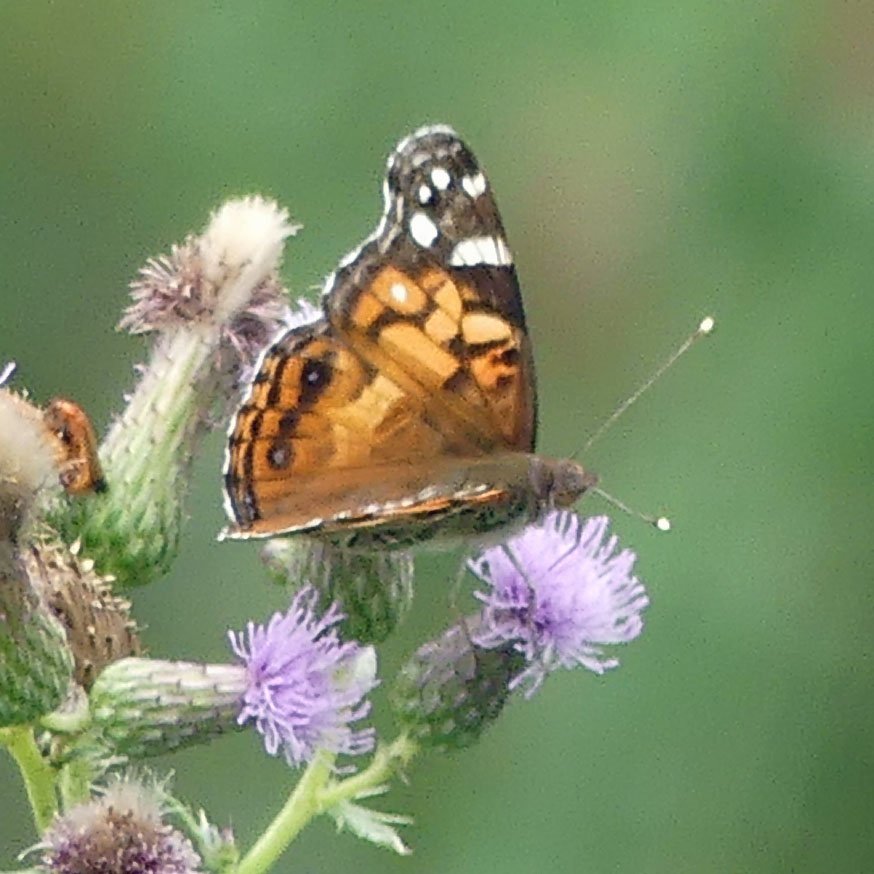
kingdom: Animalia
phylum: Arthropoda
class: Insecta
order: Lepidoptera
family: Nymphalidae
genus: Vanessa
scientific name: Vanessa virginiensis
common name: American Lady
